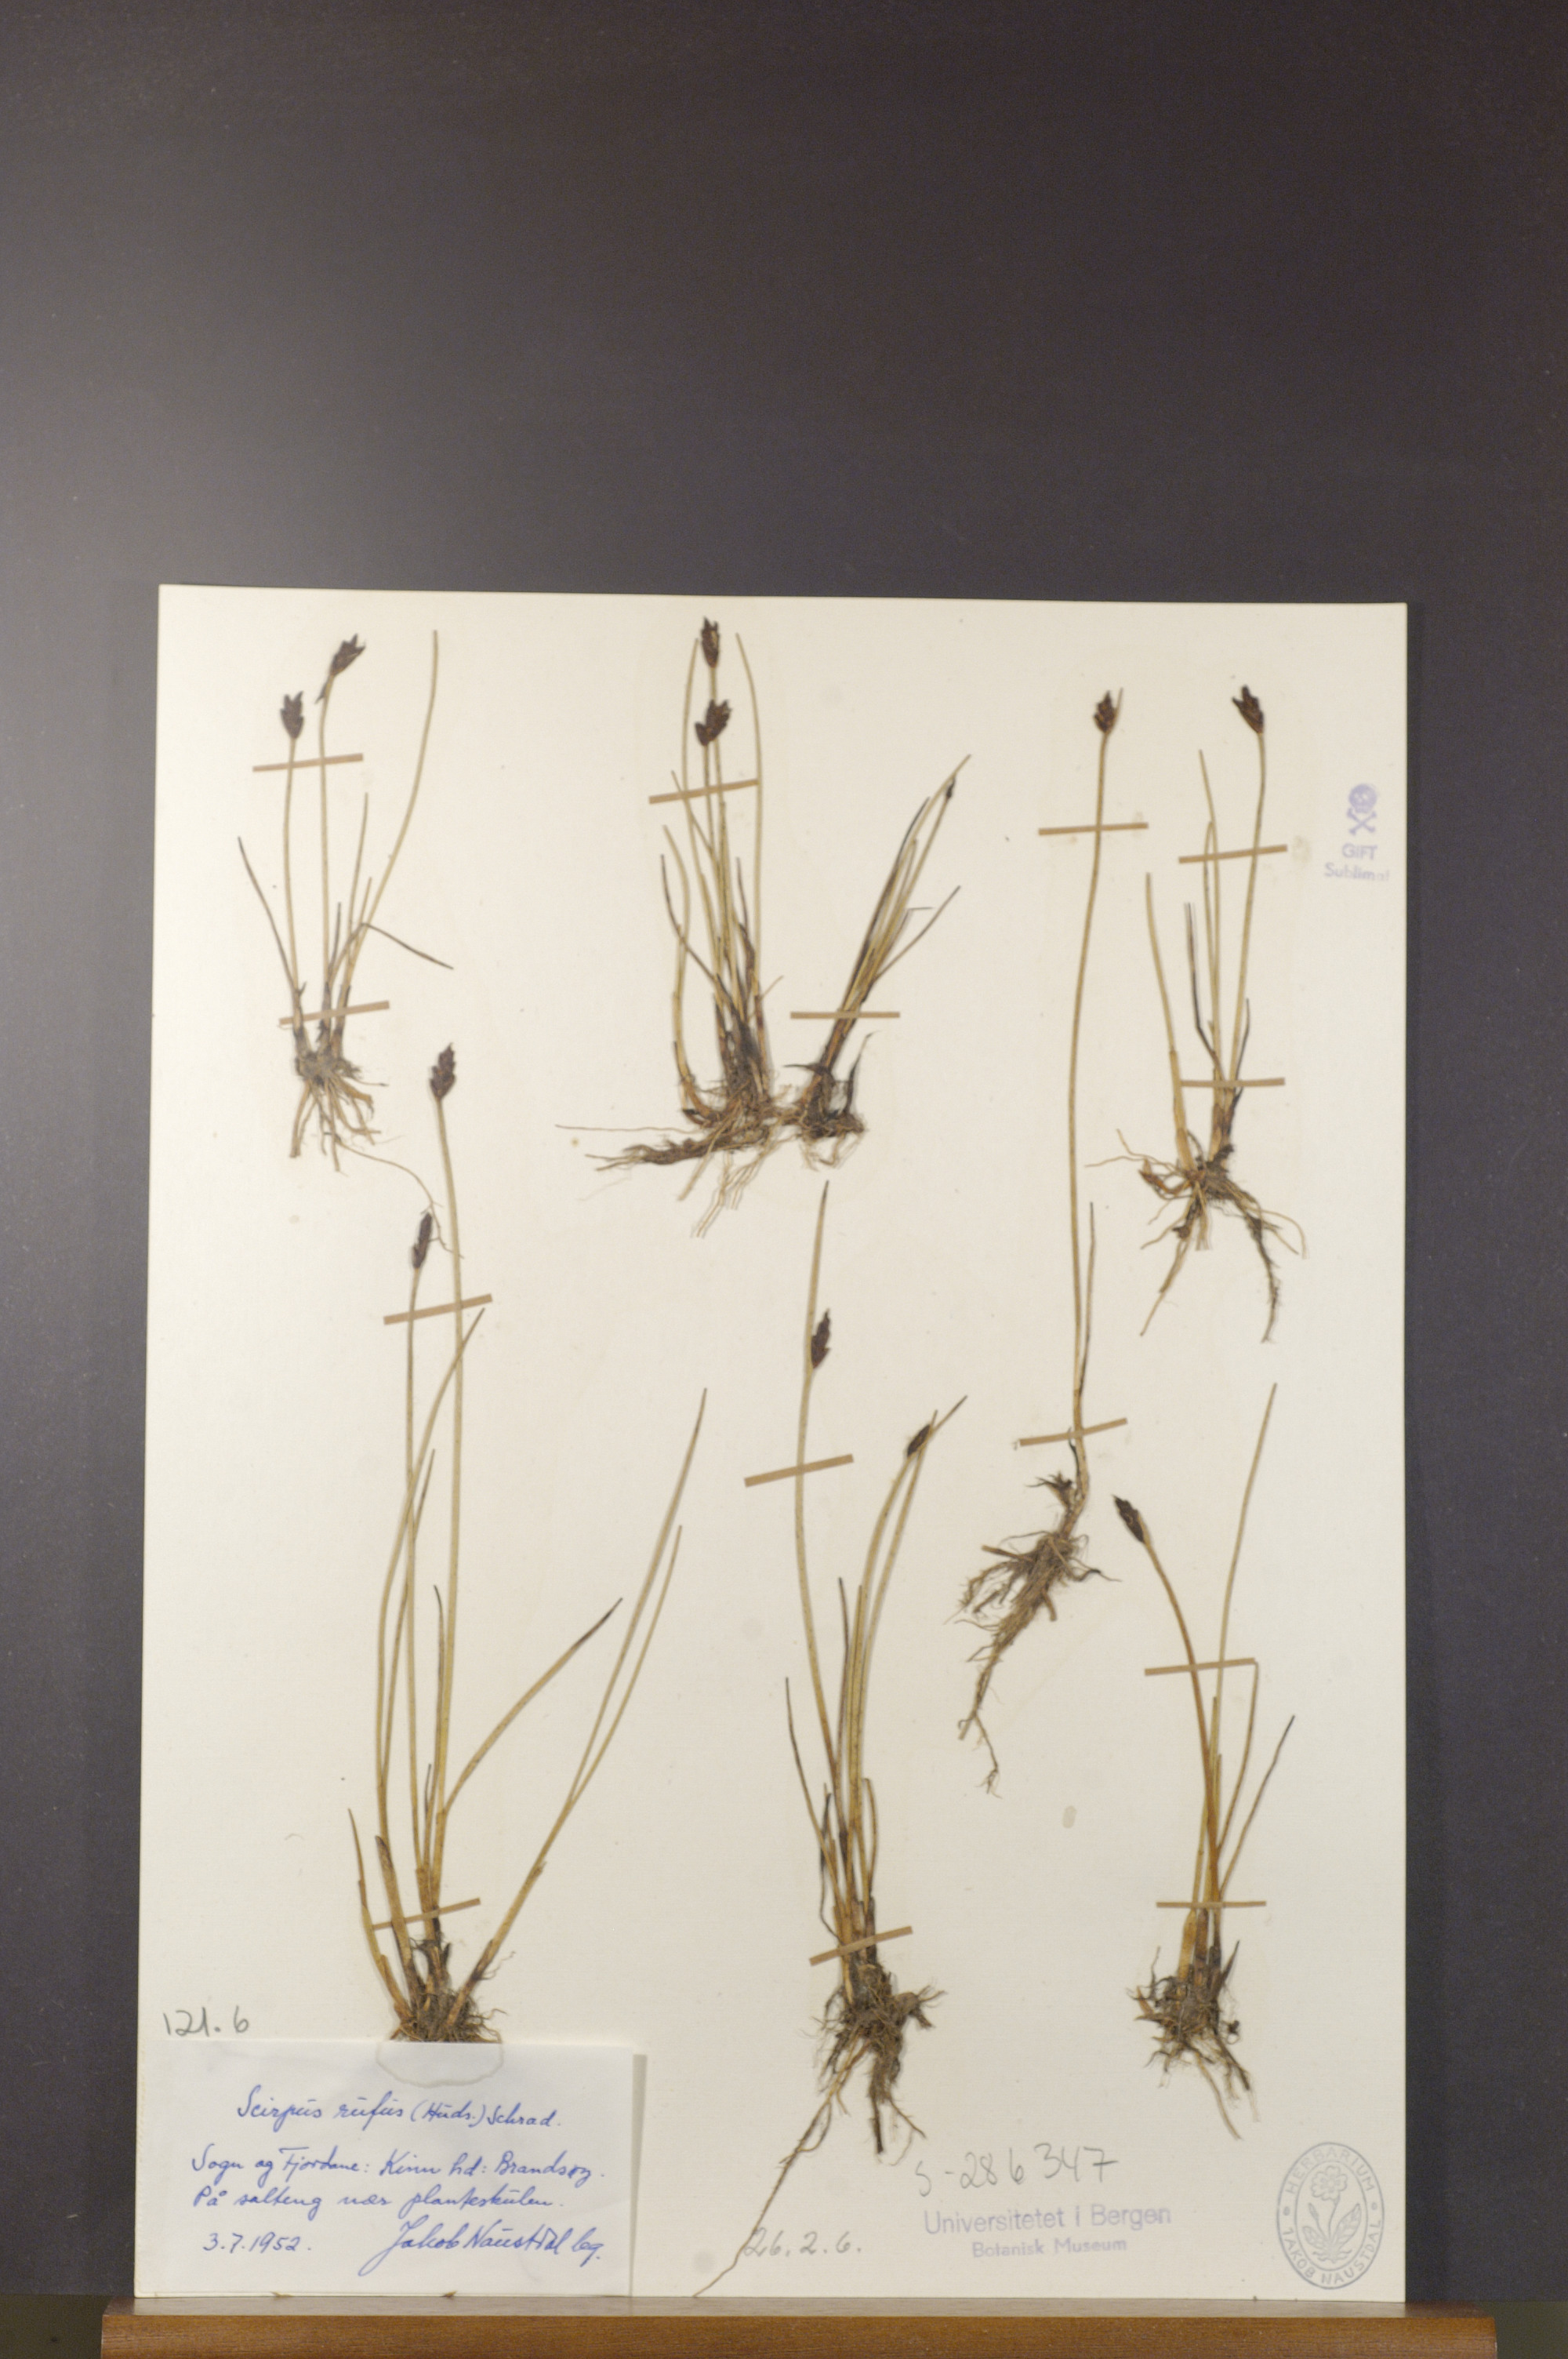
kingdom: Plantae
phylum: Tracheophyta
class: Liliopsida
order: Poales
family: Cyperaceae
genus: Blysmus
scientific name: Blysmus rufus
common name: Saltmarsh flat-sedge
